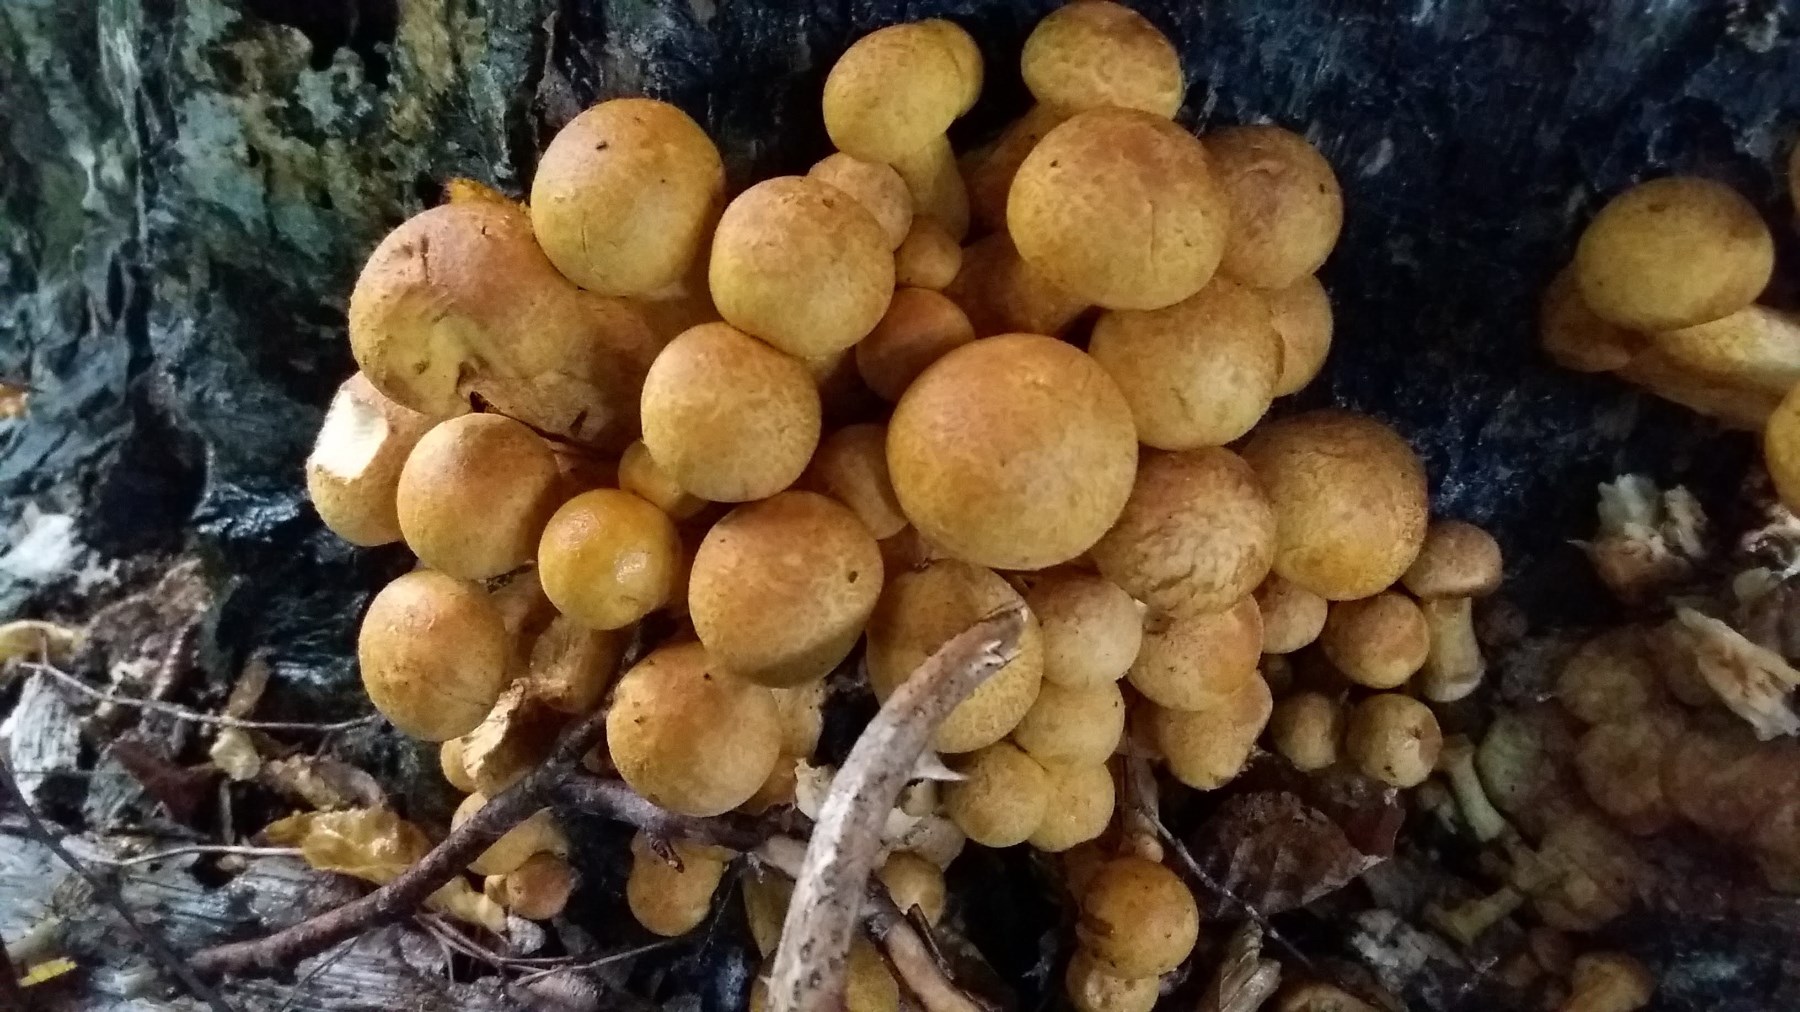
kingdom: Fungi
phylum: Basidiomycota
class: Agaricomycetes
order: Agaricales
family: Hymenogastraceae
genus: Gymnopilus
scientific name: Gymnopilus spectabilis
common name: fibret flammehat
